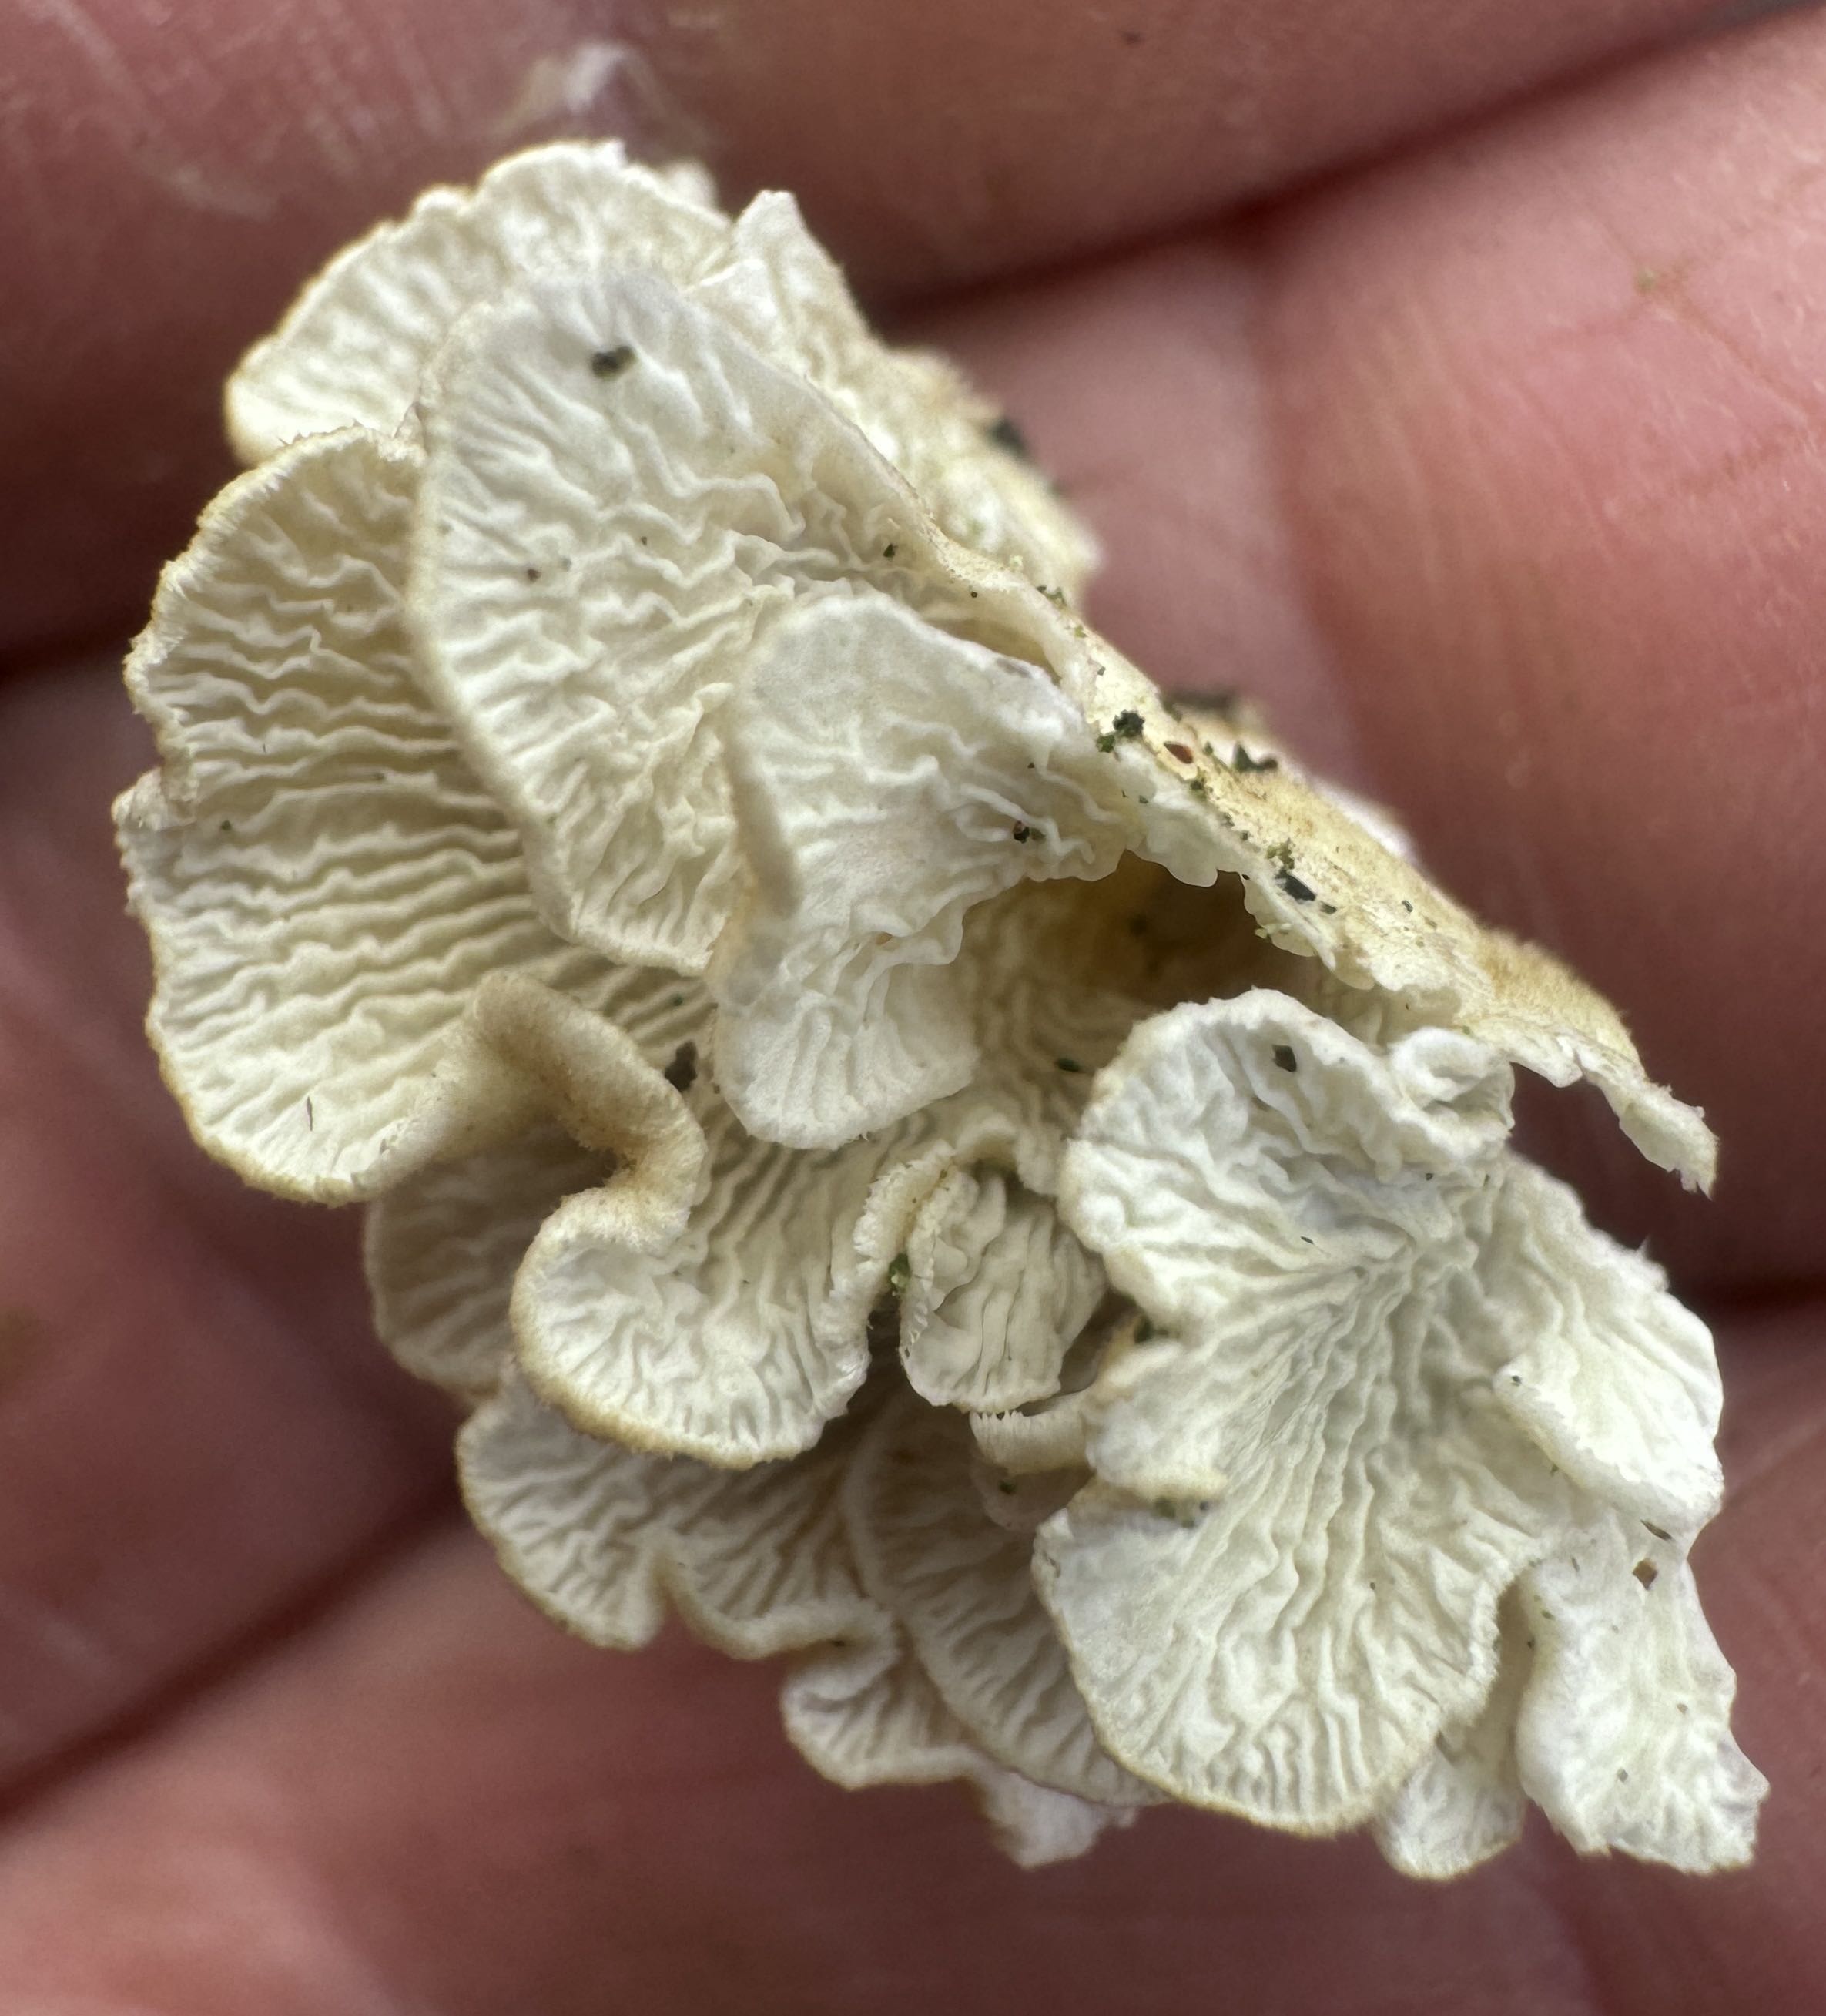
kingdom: Fungi
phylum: Basidiomycota
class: Agaricomycetes
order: Amylocorticiales
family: Amylocorticiaceae
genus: Plicaturopsis
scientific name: Plicaturopsis crispa
